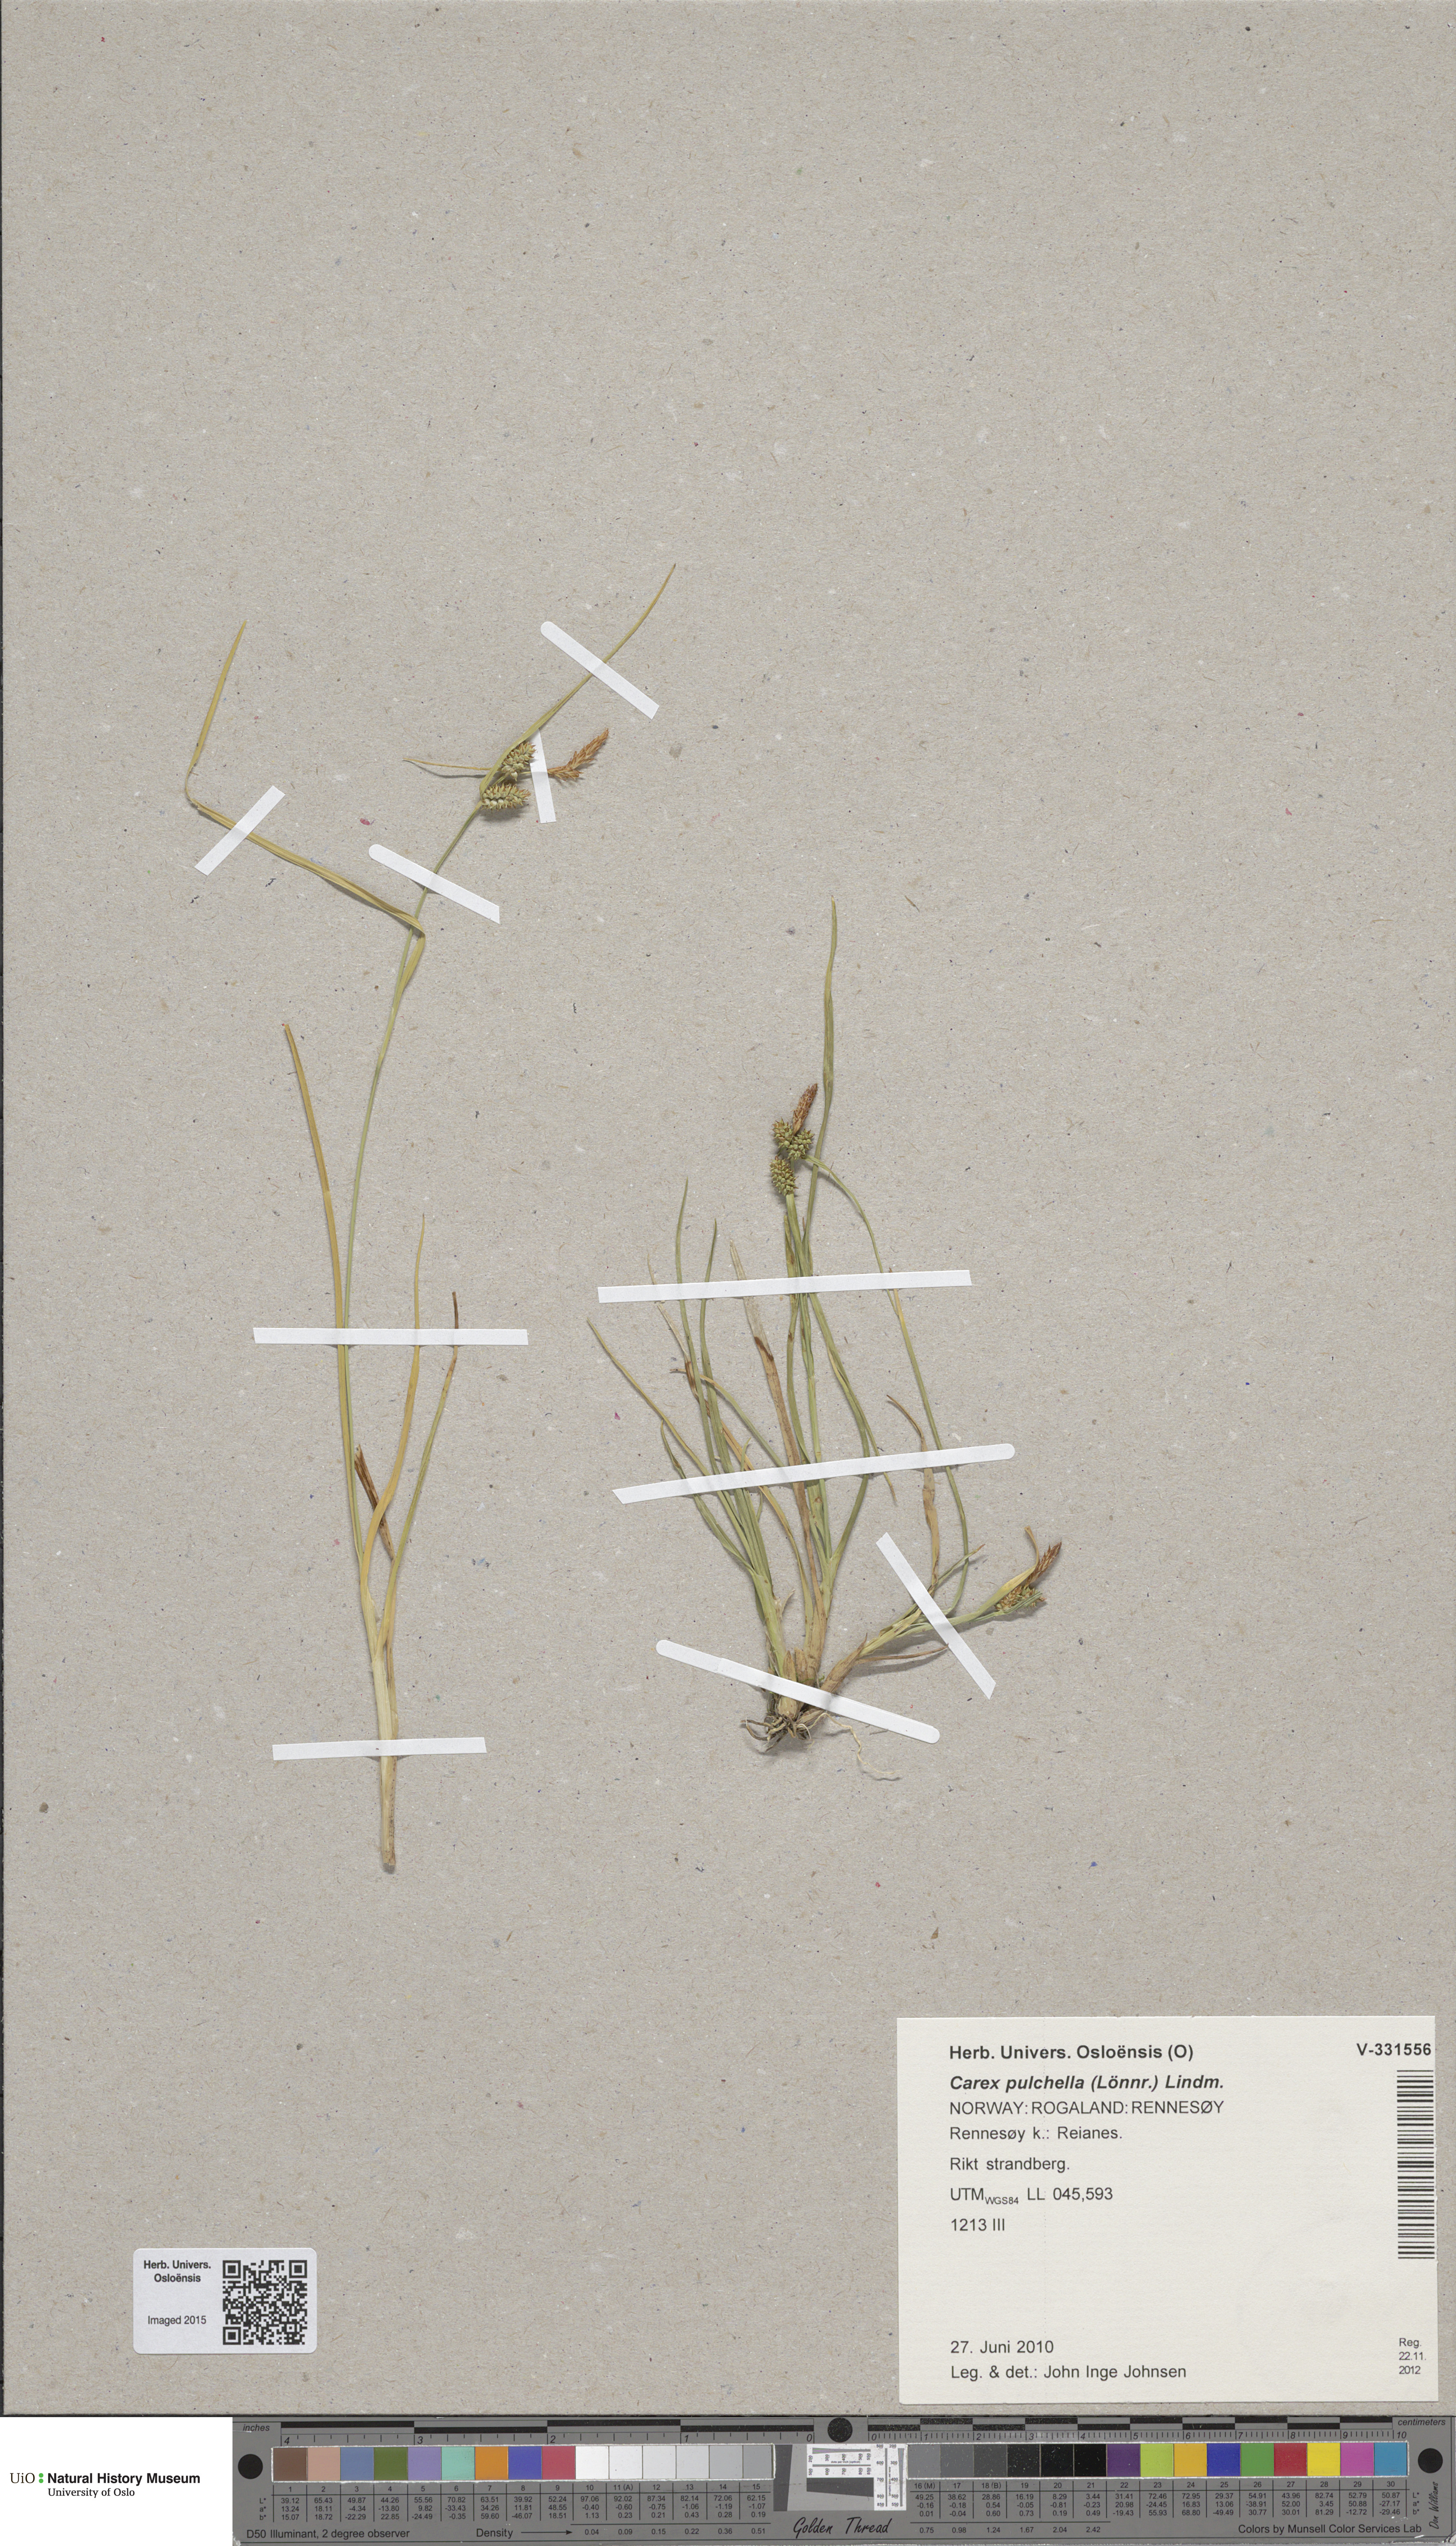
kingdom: Plantae
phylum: Tracheophyta
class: Liliopsida
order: Poales
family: Cyperaceae
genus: Carex
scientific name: Carex oederi
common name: Common & small-fruited yellow-sedge
